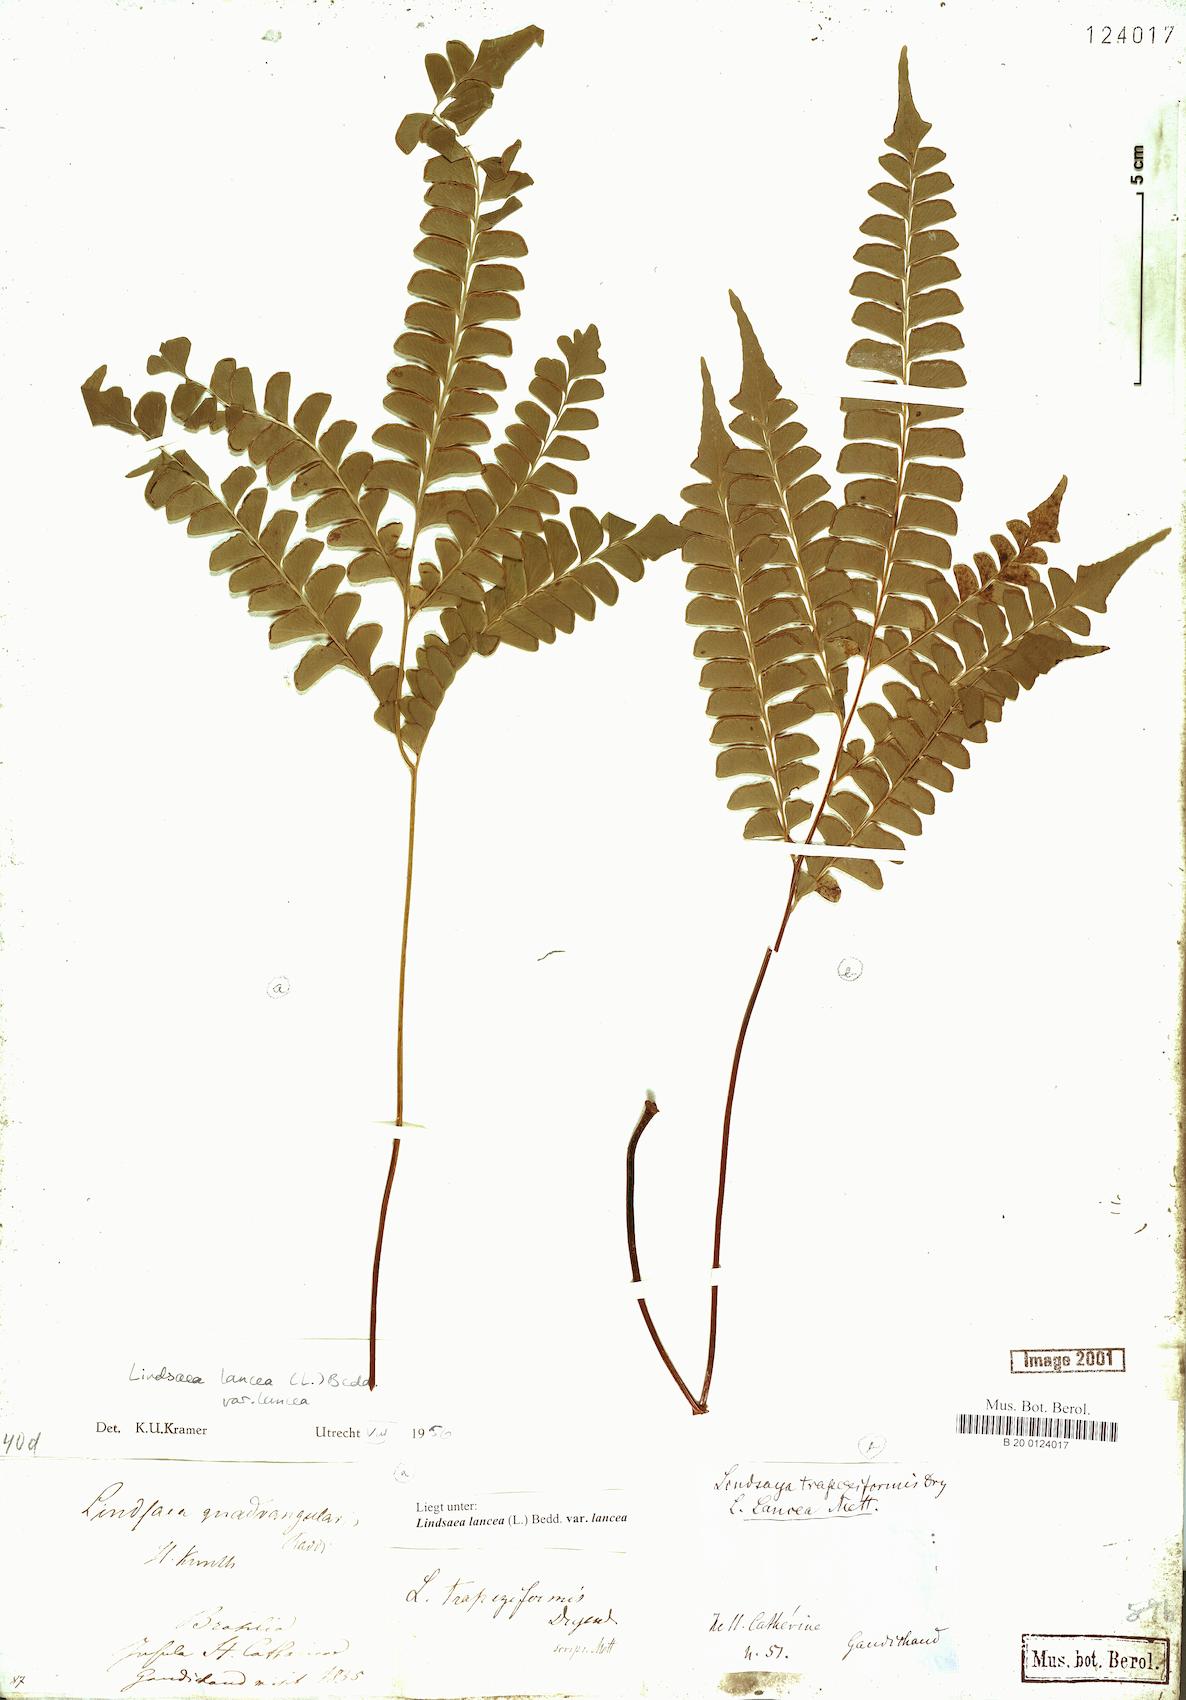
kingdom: Plantae
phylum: Tracheophyta
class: Polypodiopsida
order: Polypodiales
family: Lindsaeaceae
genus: Lindsaea
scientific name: Lindsaea lancea
